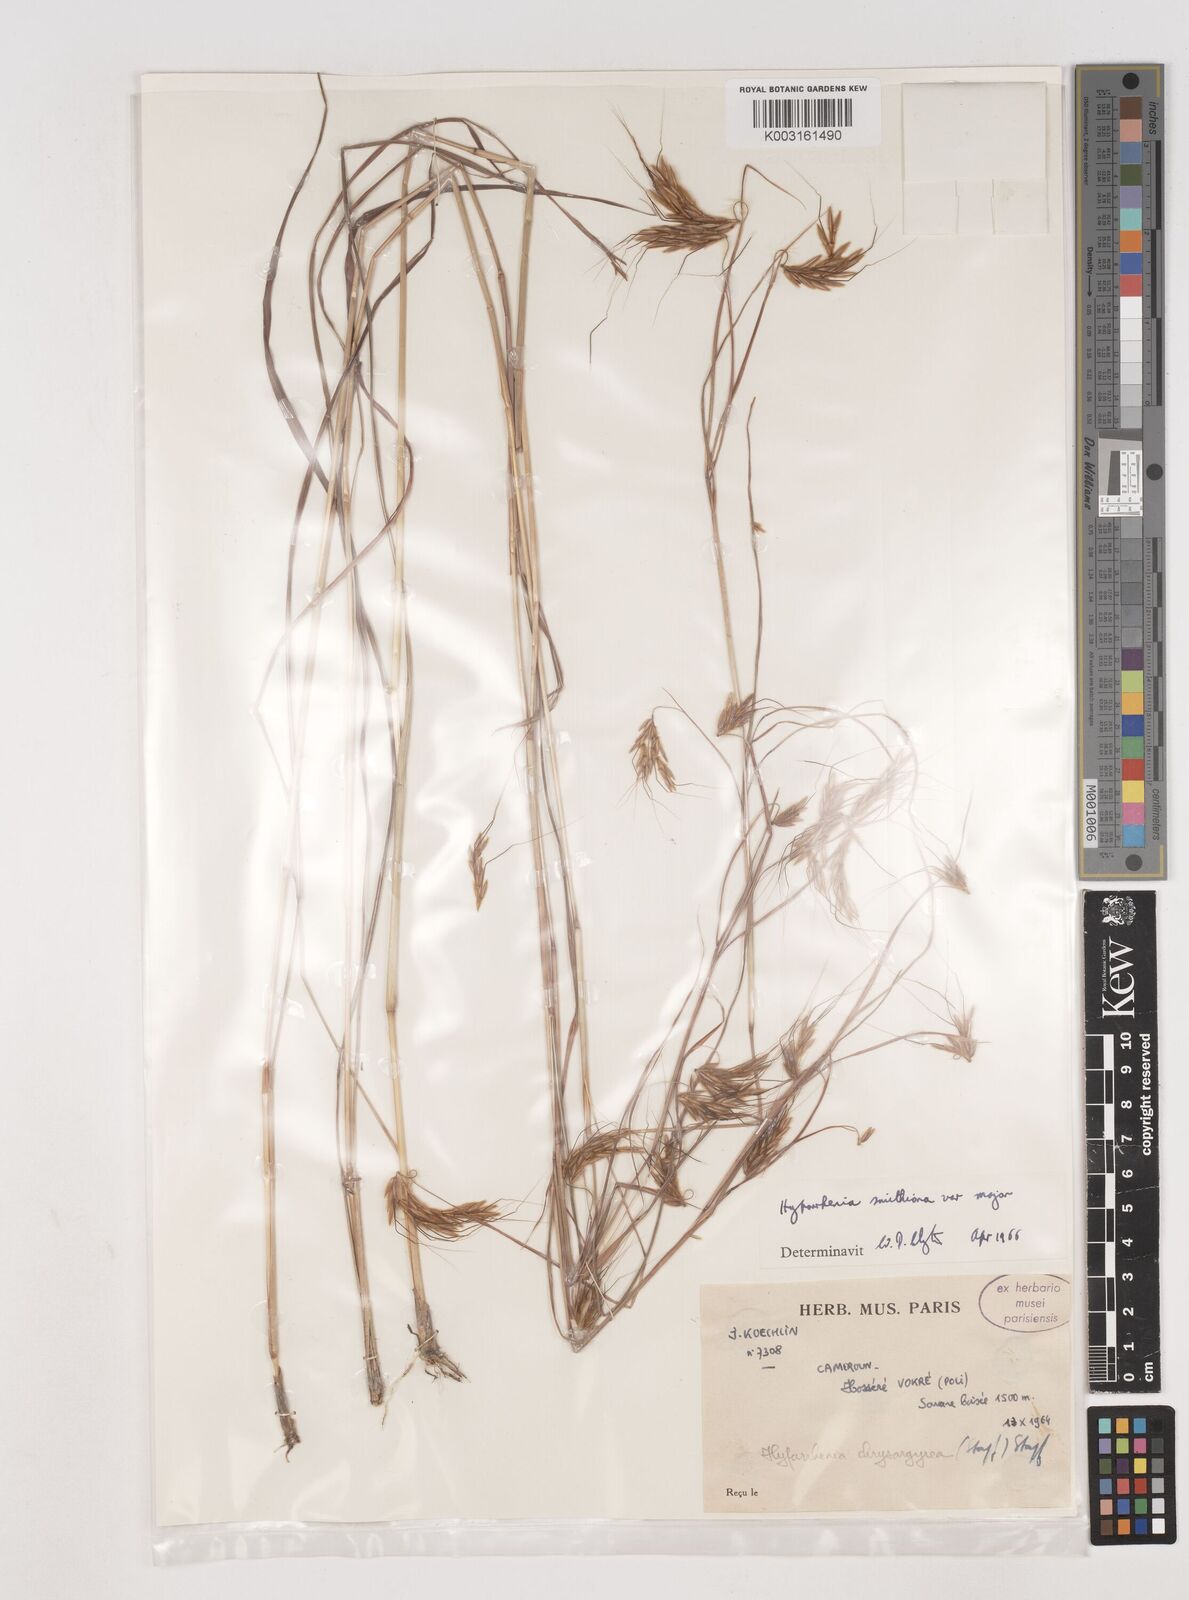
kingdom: Plantae
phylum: Tracheophyta
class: Liliopsida
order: Poales
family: Poaceae
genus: Hyparrhenia
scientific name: Hyparrhenia smithiana
